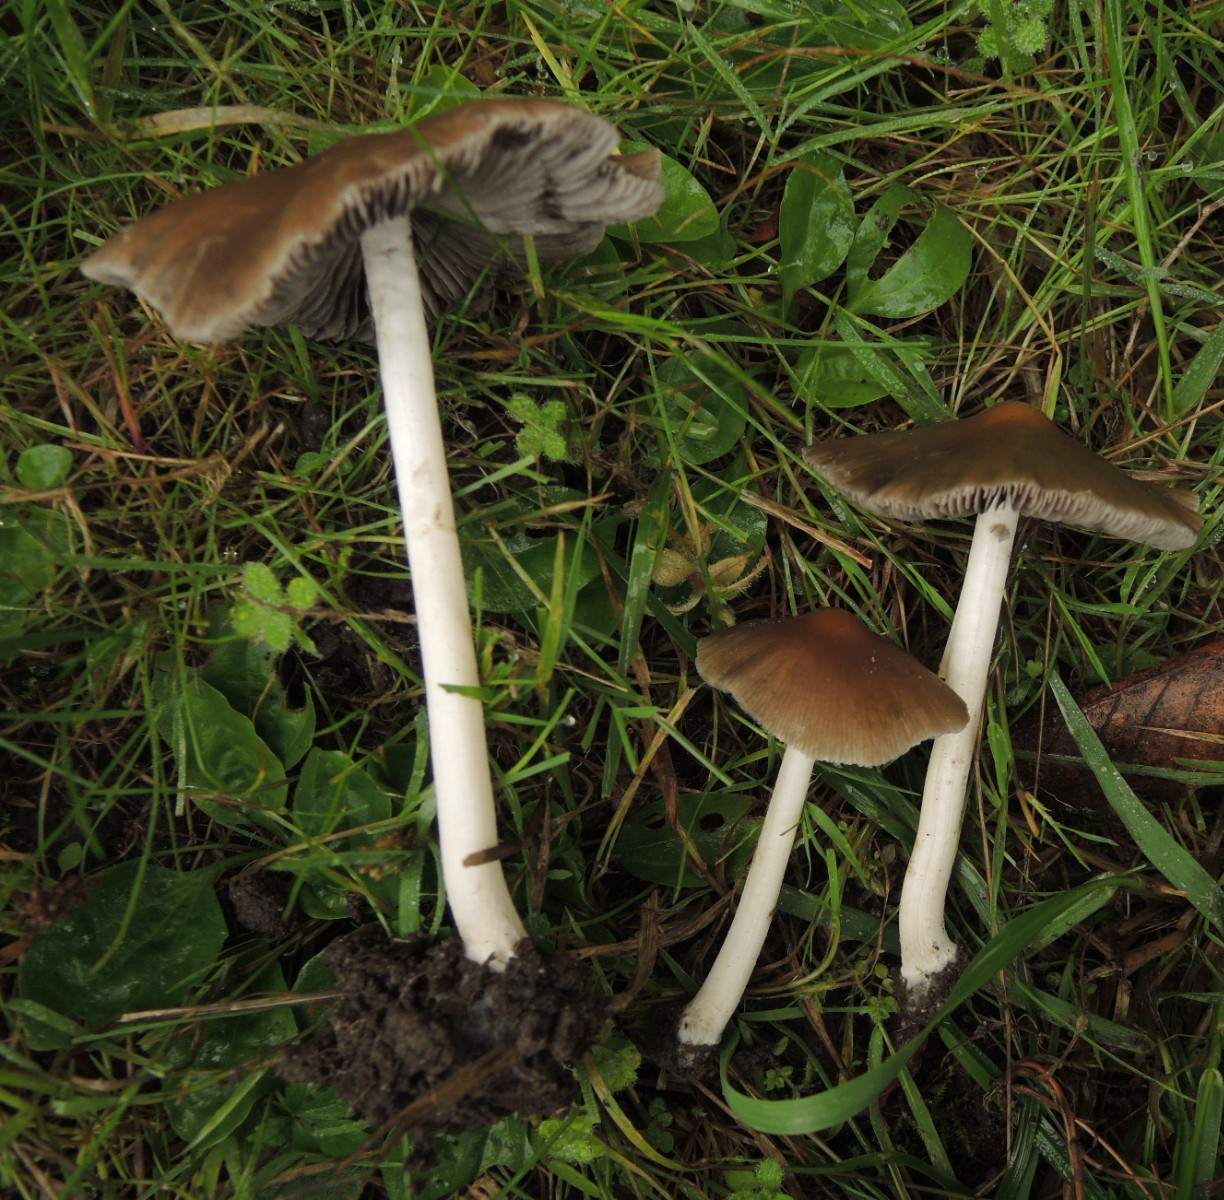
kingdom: Fungi
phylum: Basidiomycota
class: Agaricomycetes
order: Agaricales
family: Psathyrellaceae
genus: Psathyrella
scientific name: Psathyrella fusca
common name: gråbladet mørkhat
